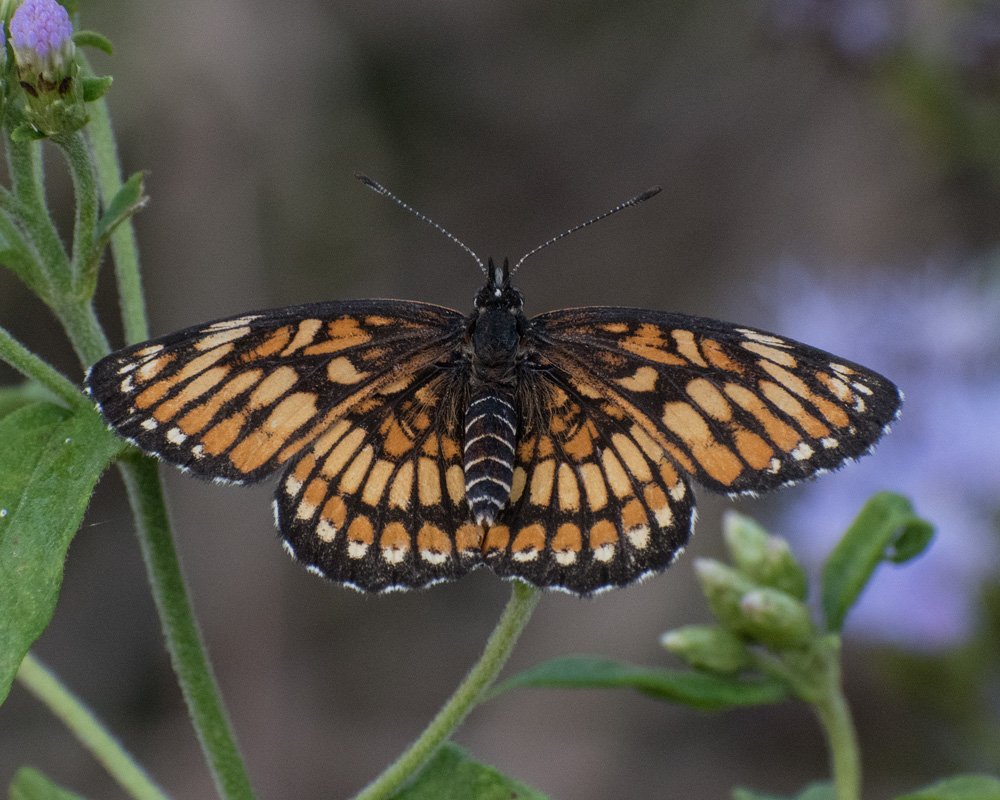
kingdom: Animalia
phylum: Arthropoda
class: Insecta
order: Lepidoptera
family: Nymphalidae
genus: Thessalia
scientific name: Thessalia theona
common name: Theona Checkerspot
